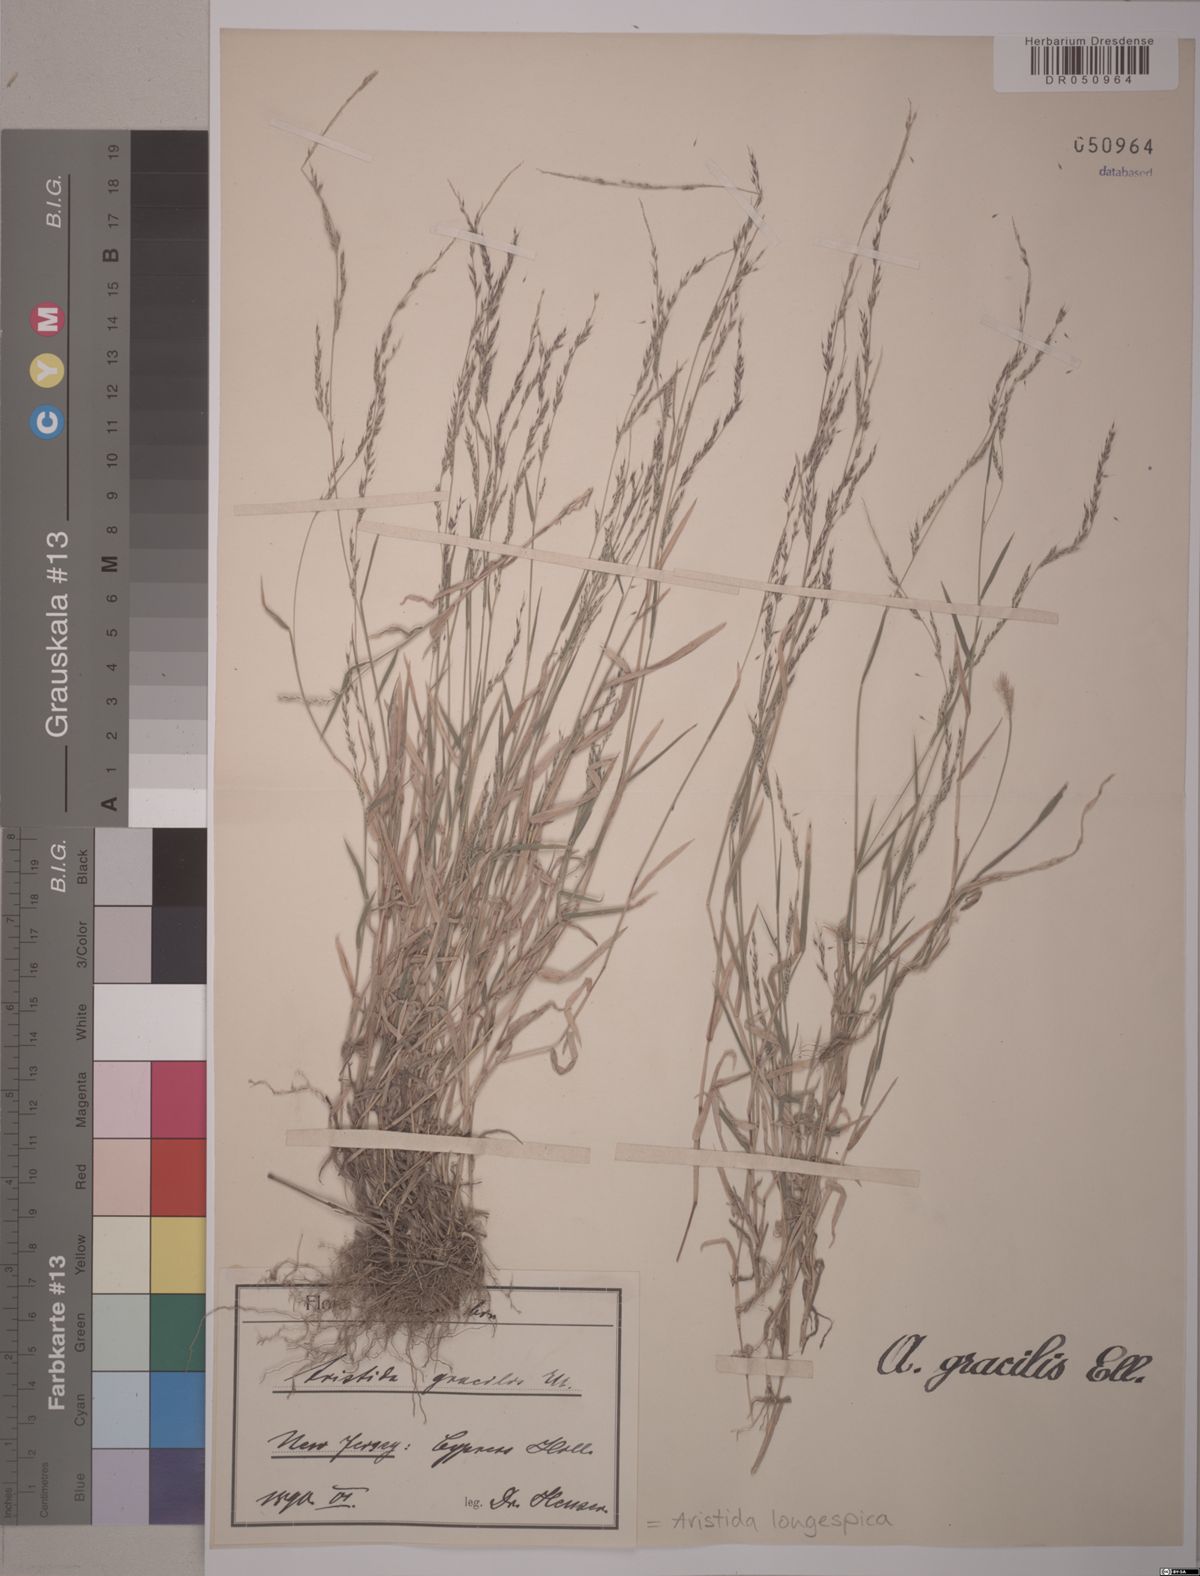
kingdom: Plantae
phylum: Tracheophyta
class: Liliopsida
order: Poales
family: Poaceae
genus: Aristida
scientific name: Aristida longespica
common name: Long-spiked triple-awned grass
